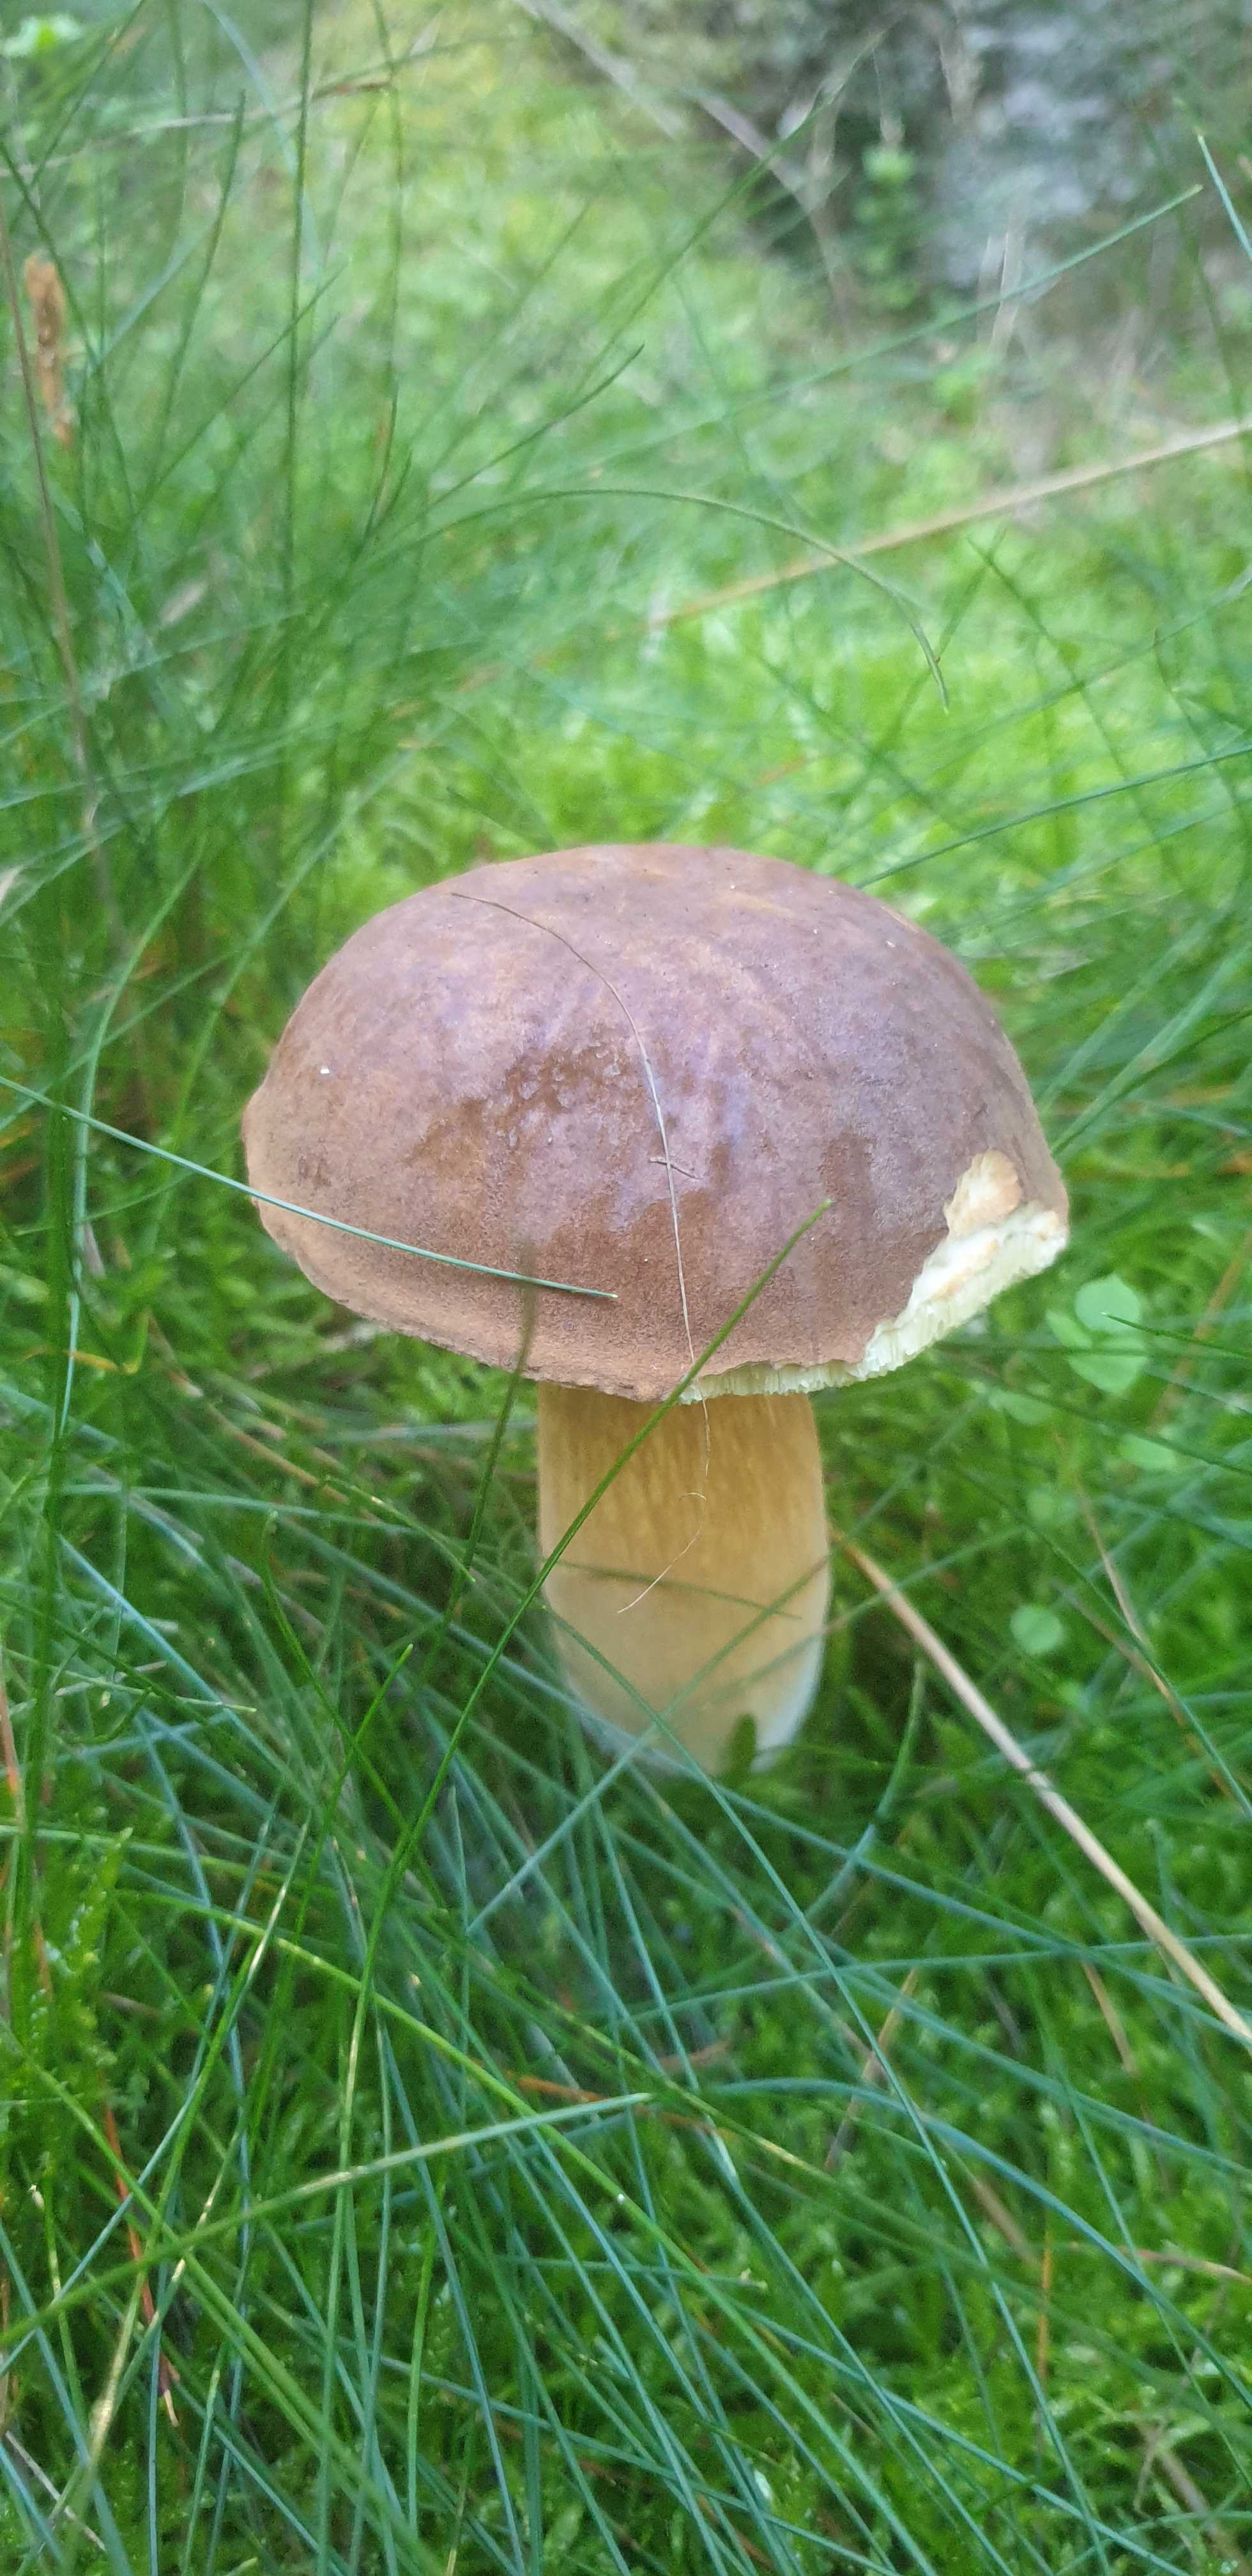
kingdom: Fungi
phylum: Basidiomycota
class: Agaricomycetes
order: Boletales
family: Boletaceae
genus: Imleria
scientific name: Imleria badia
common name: brunstokket rørhat
